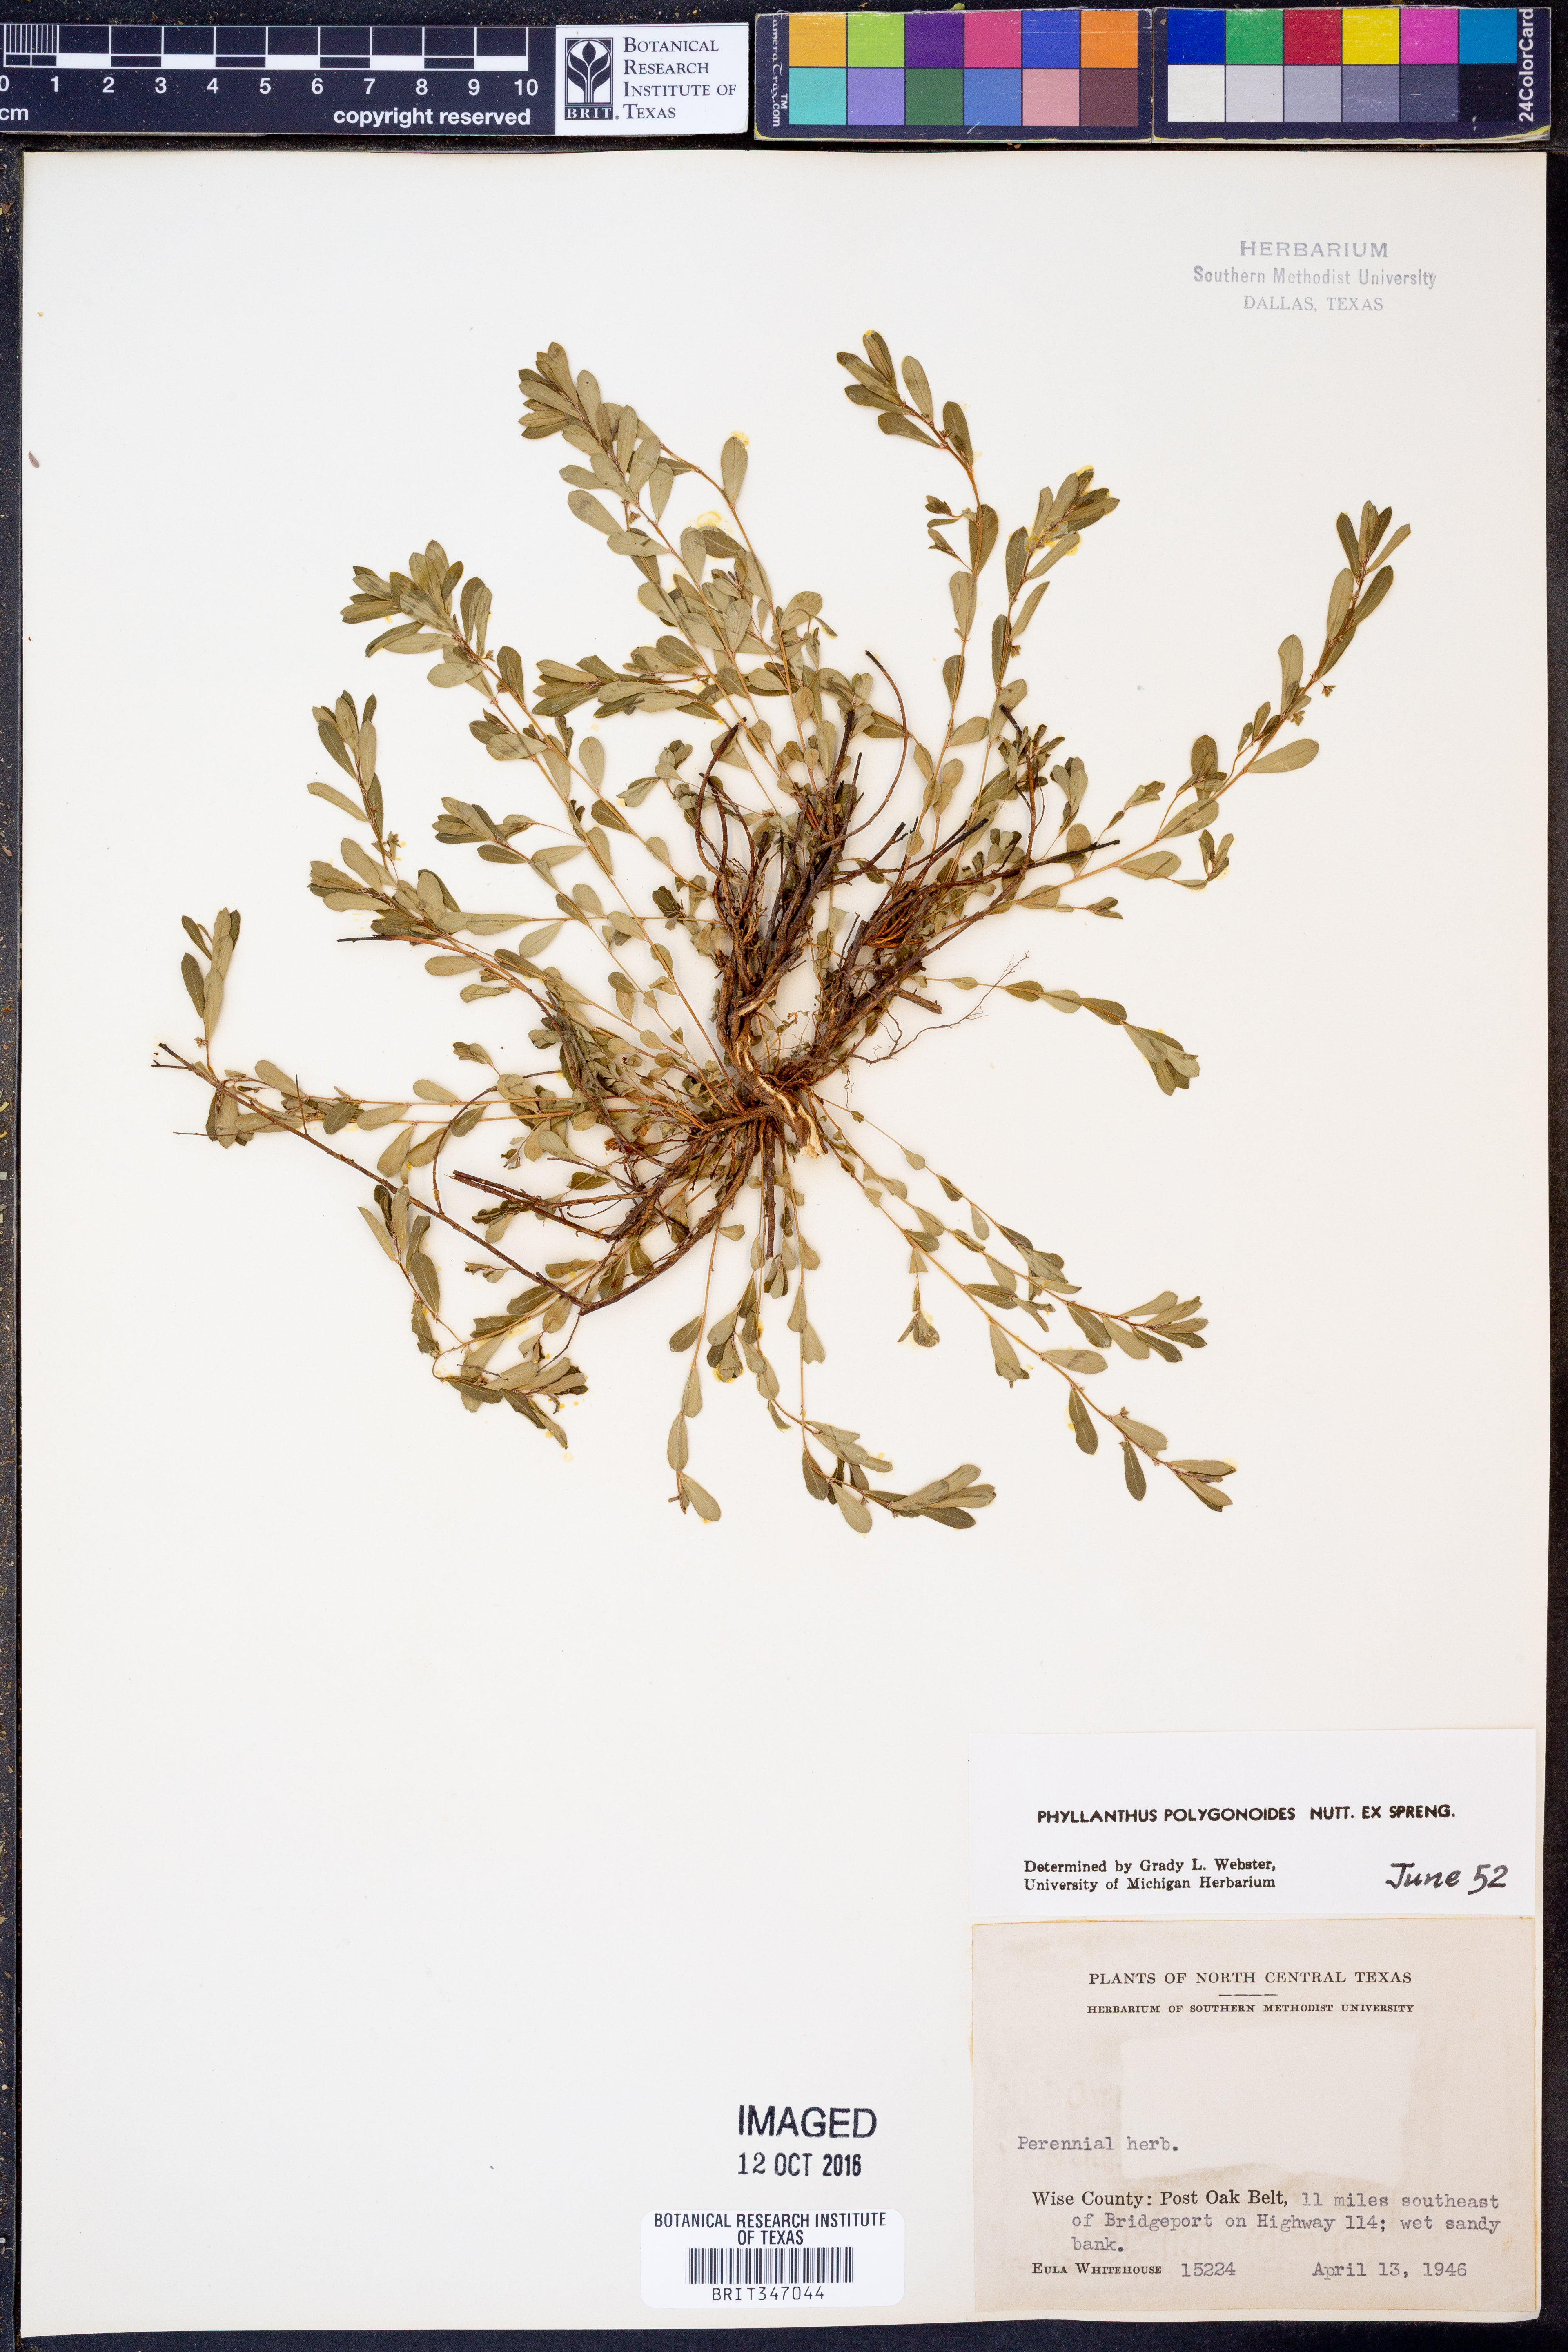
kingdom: Plantae
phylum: Tracheophyta
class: Magnoliopsida
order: Malpighiales
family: Phyllanthaceae
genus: Phyllanthus
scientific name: Phyllanthus polygonoides
